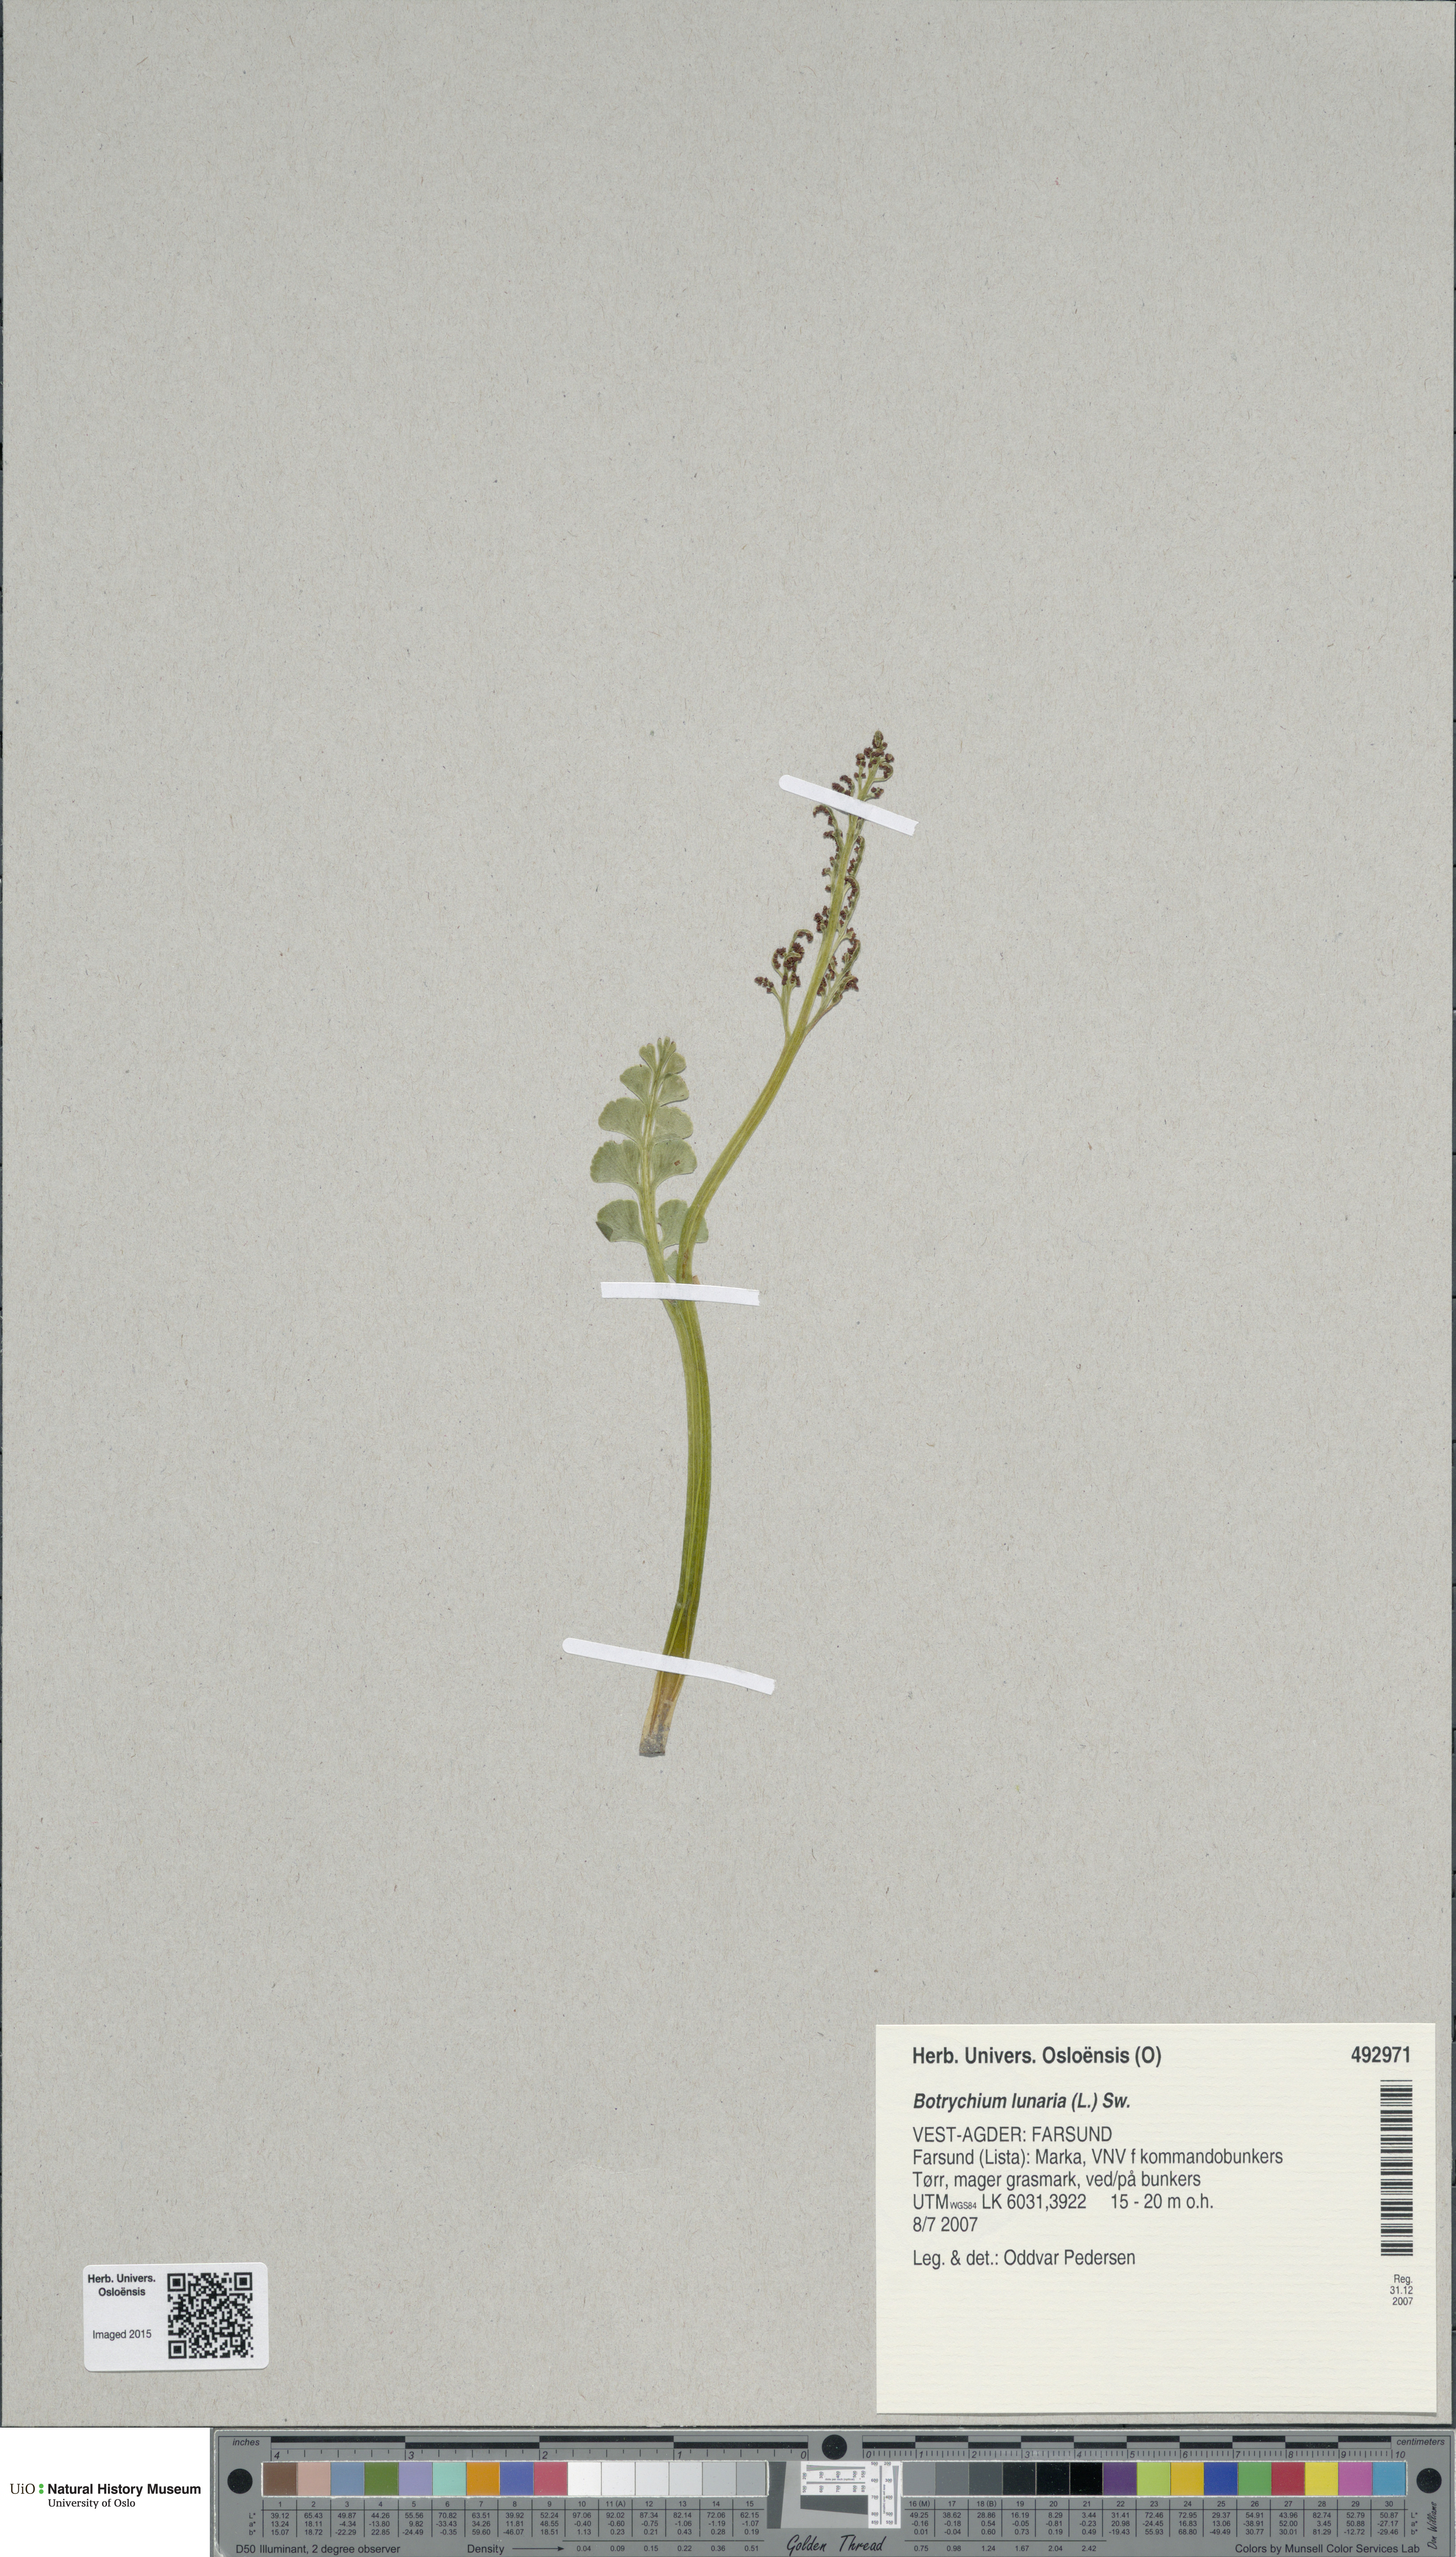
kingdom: Plantae
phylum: Tracheophyta
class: Polypodiopsida
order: Ophioglossales
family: Ophioglossaceae
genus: Botrychium
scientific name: Botrychium lunaria
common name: Moonwort
